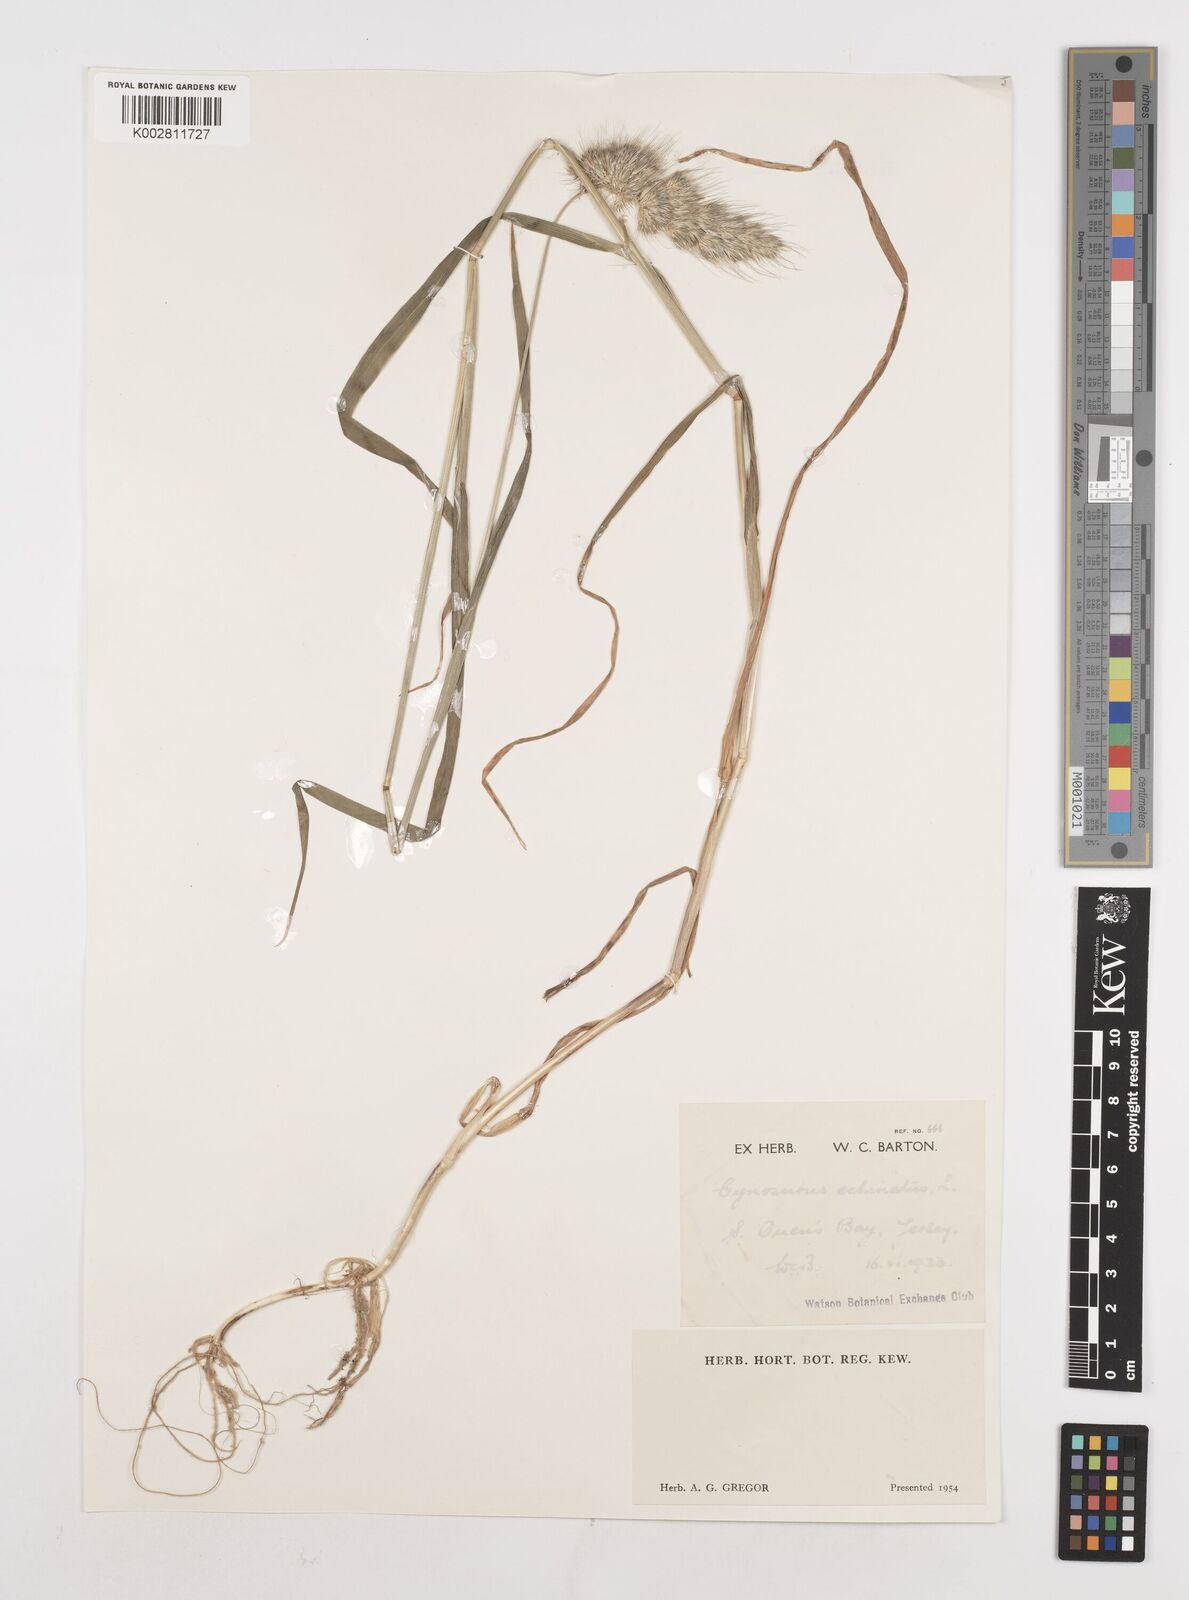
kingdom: Plantae
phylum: Tracheophyta
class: Liliopsida
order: Poales
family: Poaceae
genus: Cynosurus
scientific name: Cynosurus echinatus
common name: Rough dog's-tail
